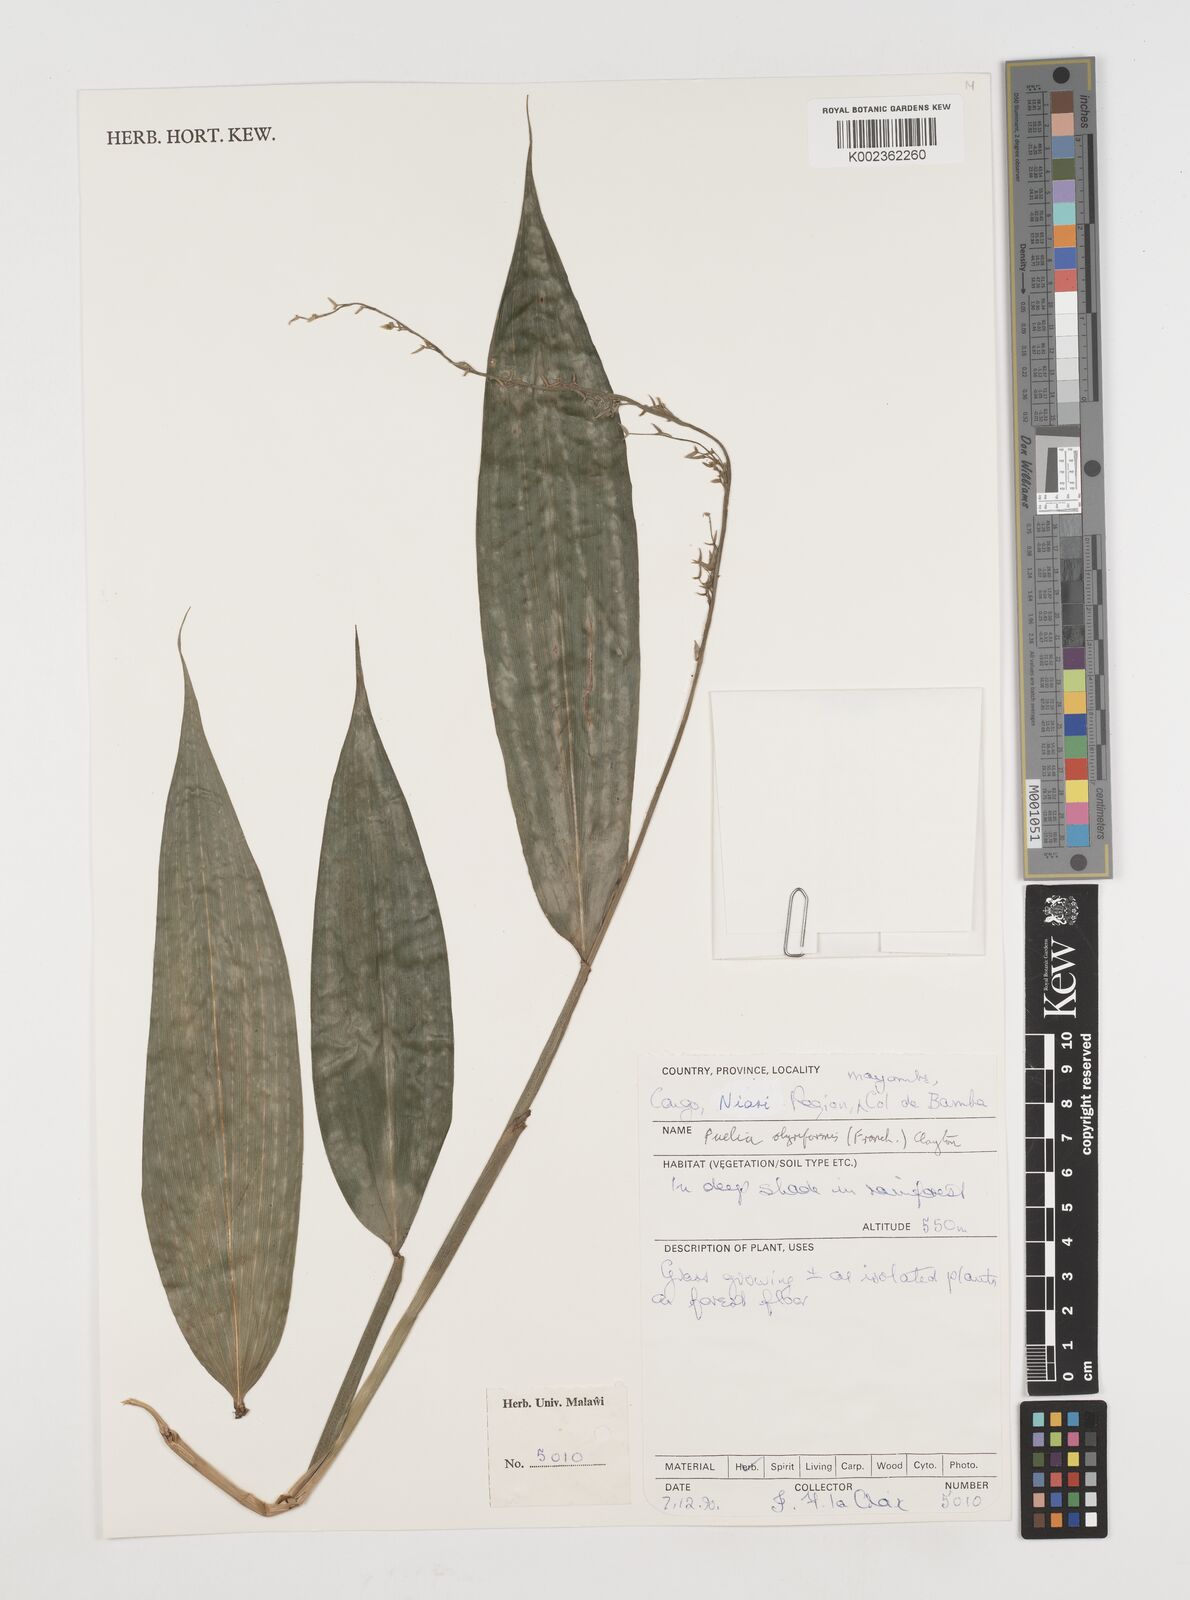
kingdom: Plantae
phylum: Tracheophyta
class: Liliopsida
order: Poales
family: Poaceae
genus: Puelia
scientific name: Puelia olyriformis
